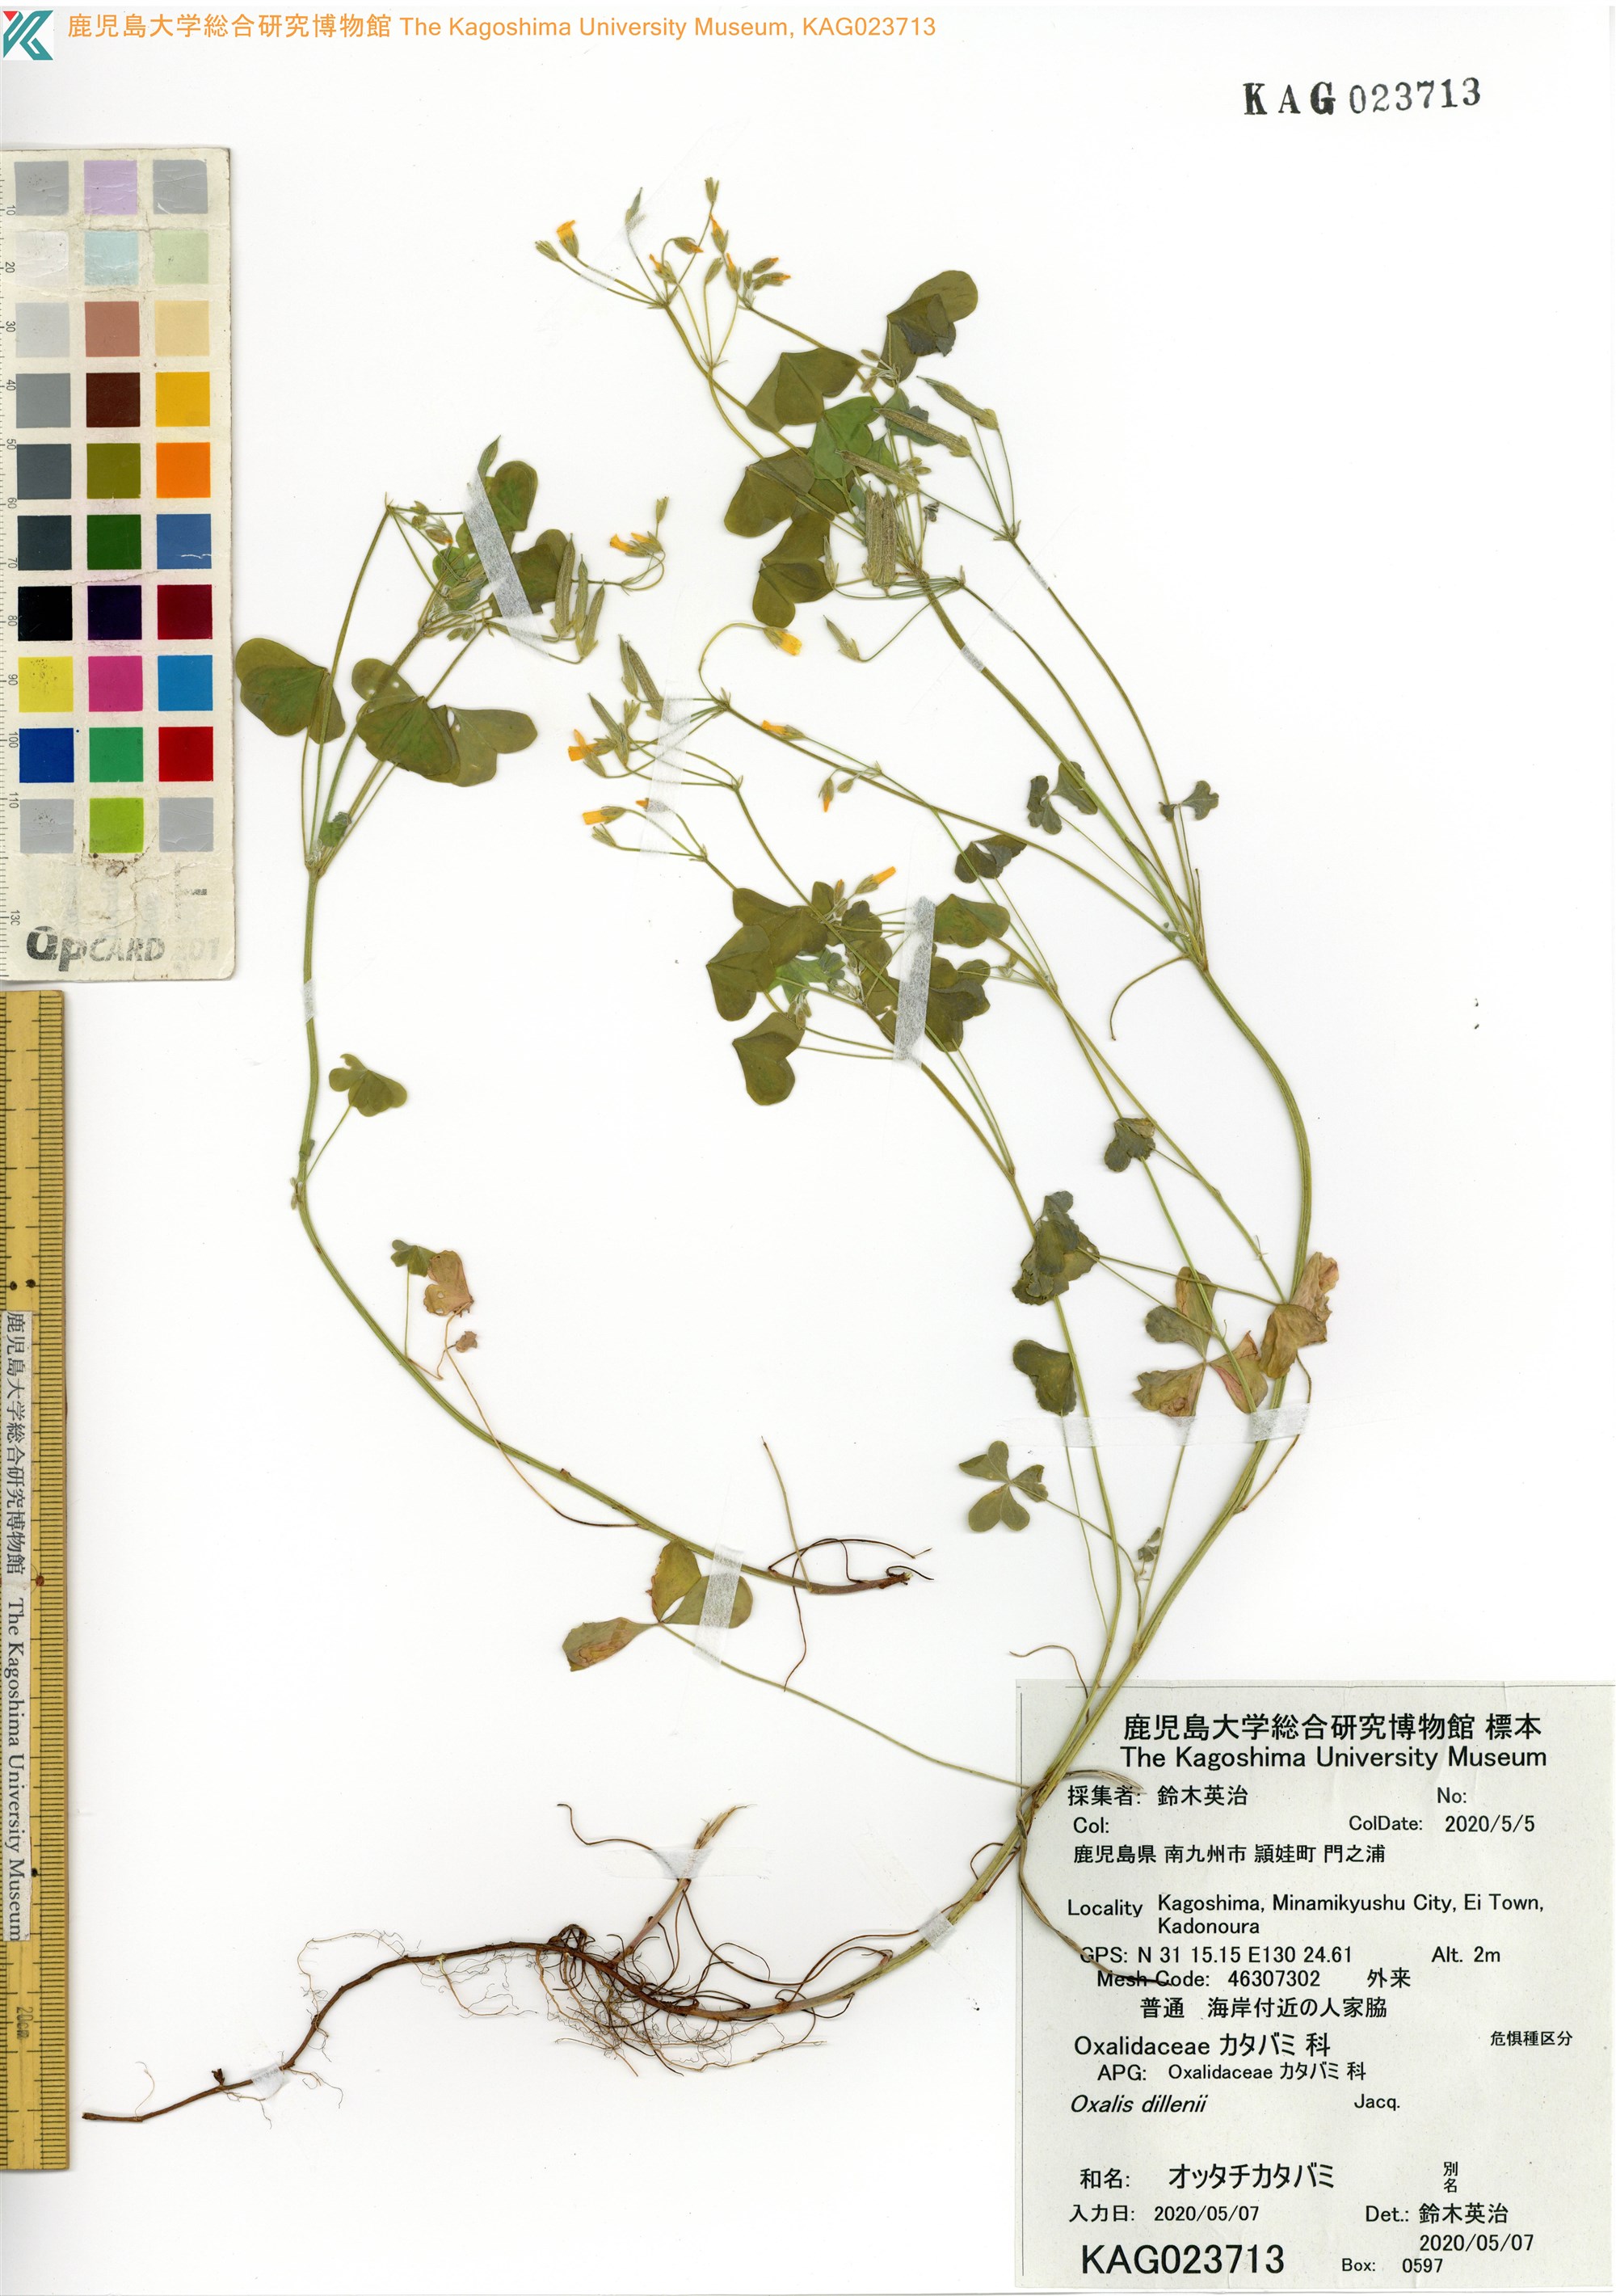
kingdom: Plantae
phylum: Tracheophyta
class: Magnoliopsida
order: Oxalidales
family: Oxalidaceae
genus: Oxalis
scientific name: Oxalis dillenii
